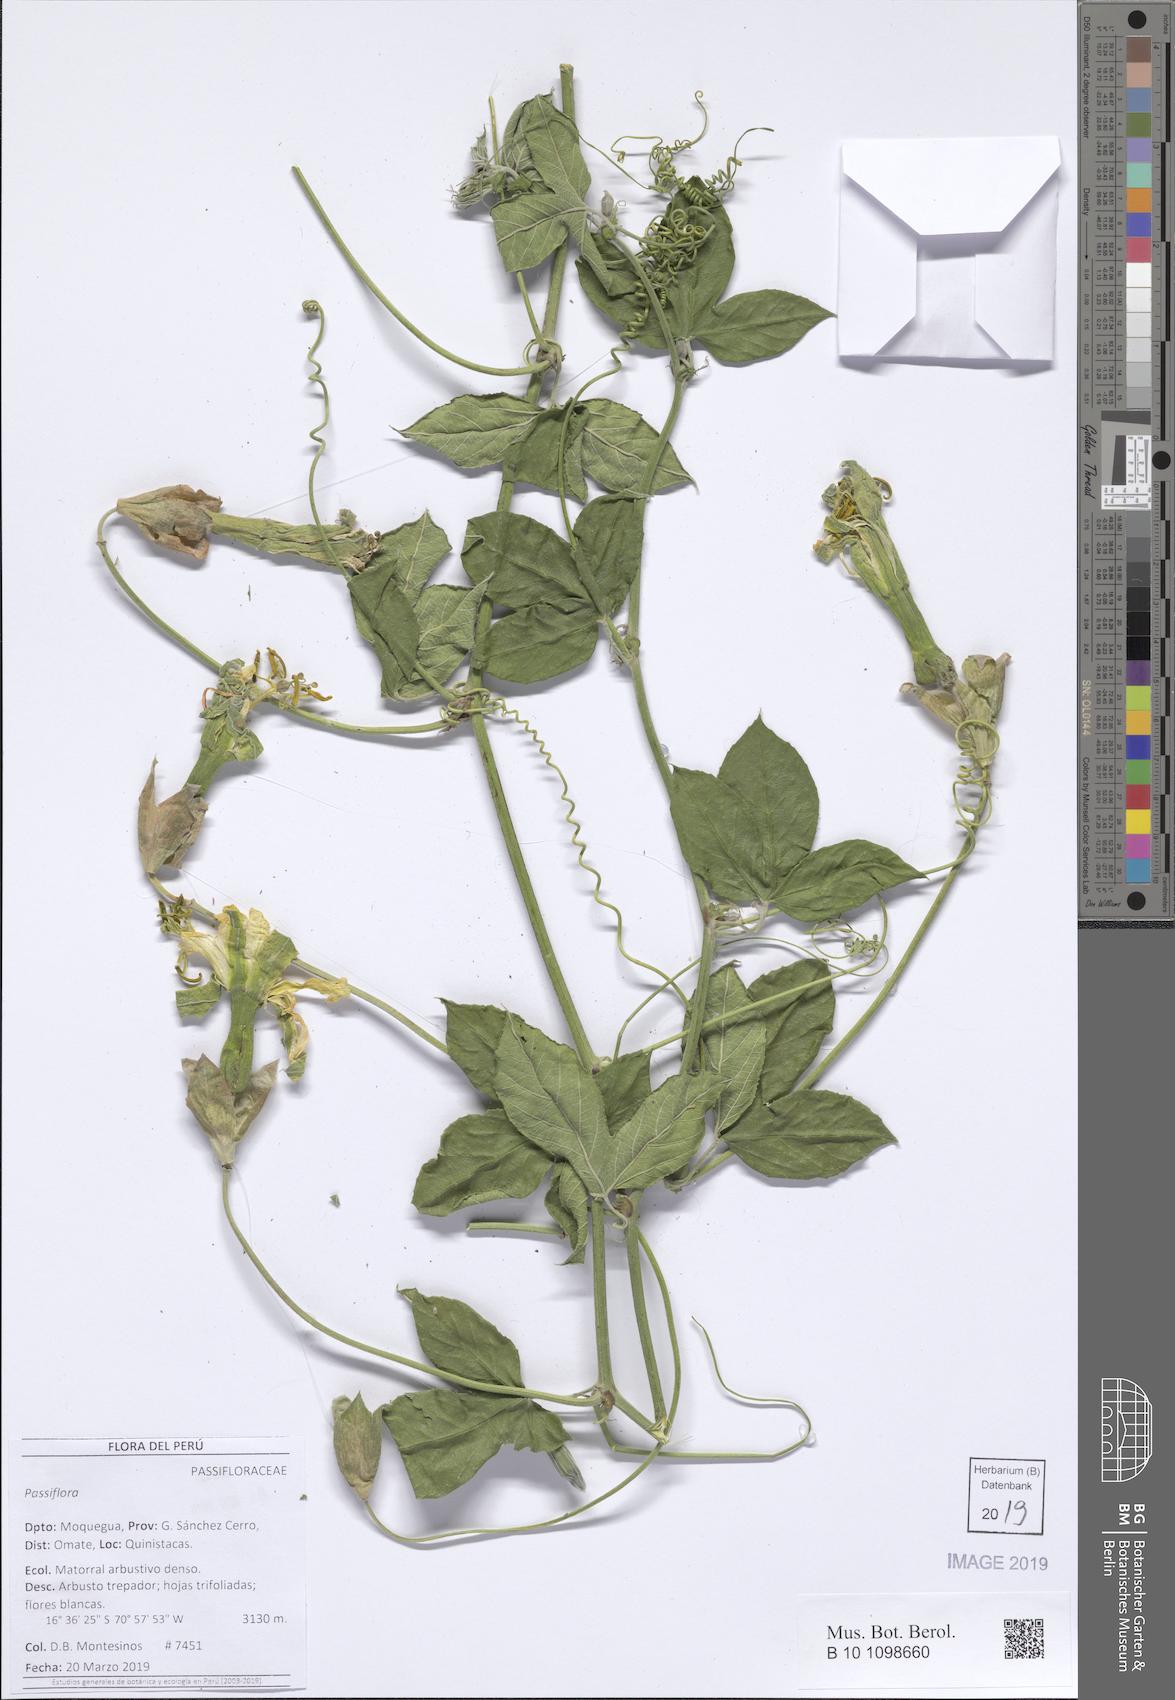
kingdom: Plantae
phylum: Tracheophyta
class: Magnoliopsida
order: Malpighiales
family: Passifloraceae
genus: Passiflora
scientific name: Passiflora
